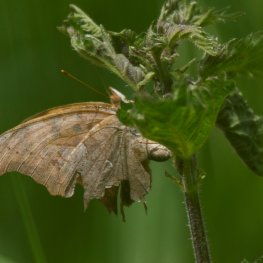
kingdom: Animalia
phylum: Arthropoda
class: Insecta
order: Lepidoptera
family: Nymphalidae
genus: Polygonia
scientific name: Polygonia interrogationis
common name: Question Mark
